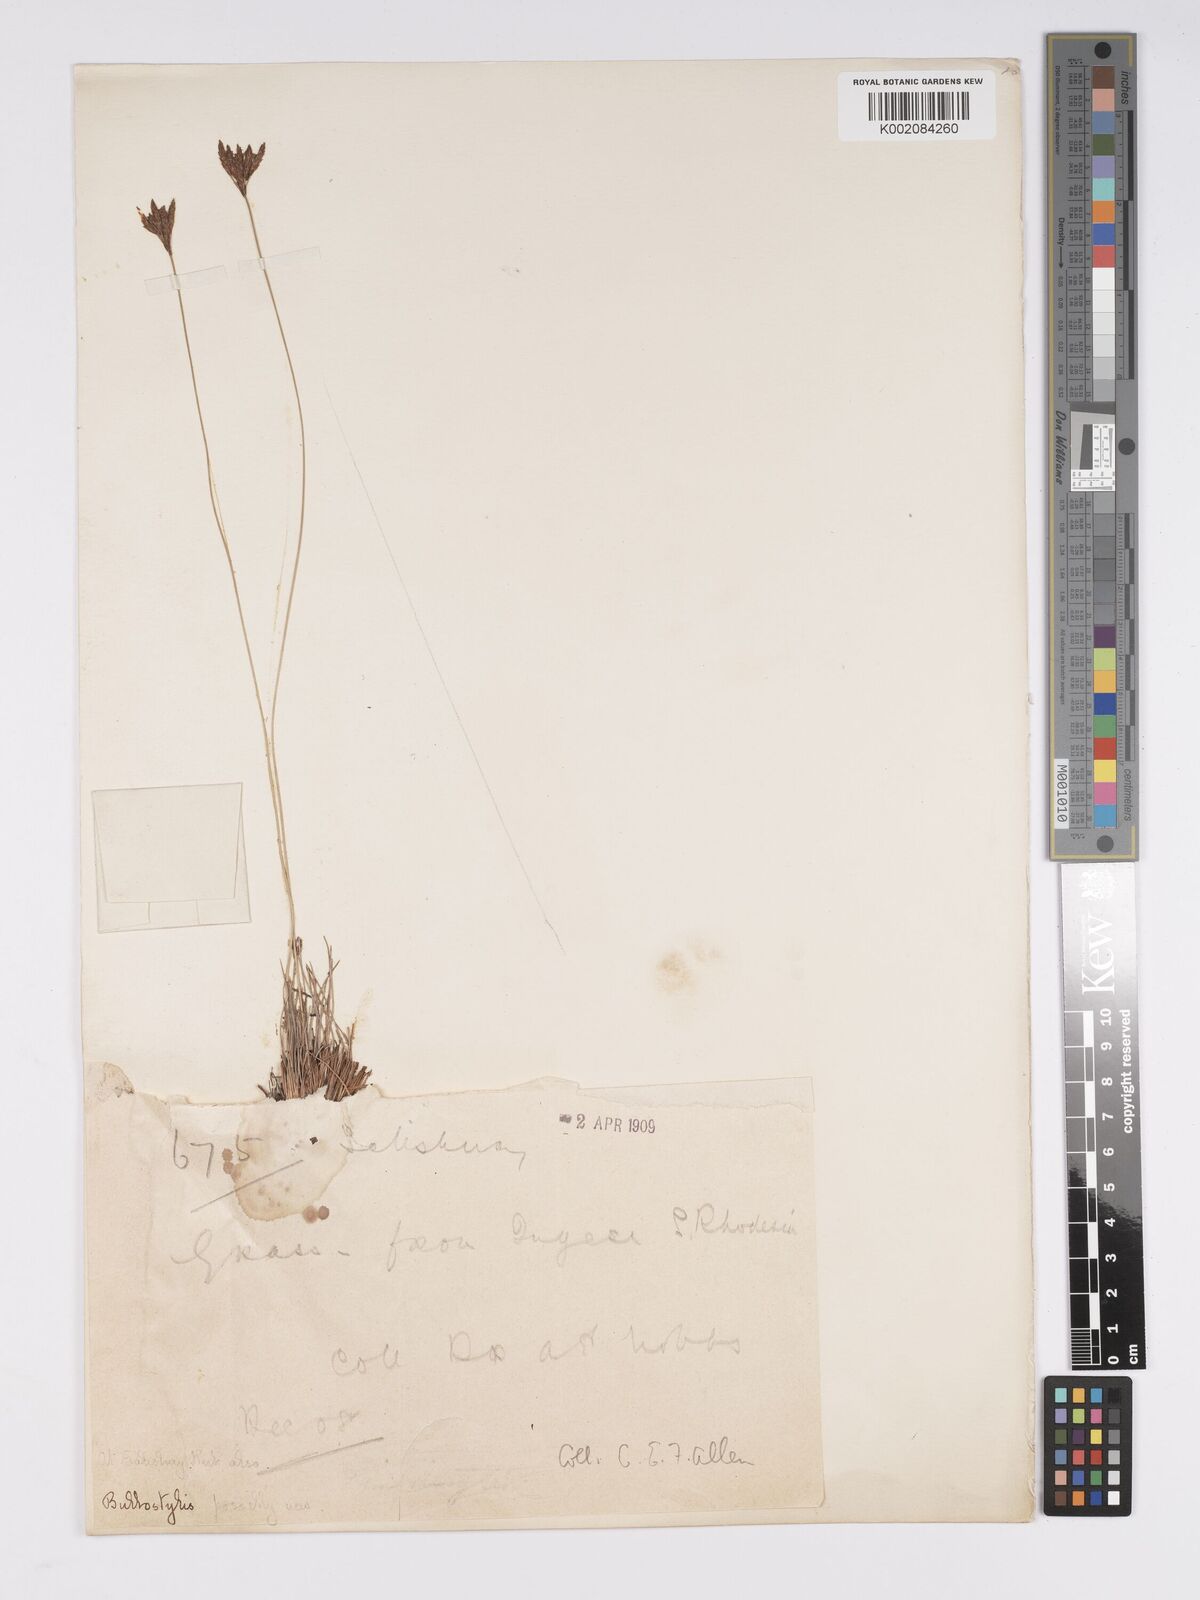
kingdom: Plantae
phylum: Tracheophyta
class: Liliopsida
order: Poales
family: Cyperaceae
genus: Bulbostylis
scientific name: Bulbostylis
